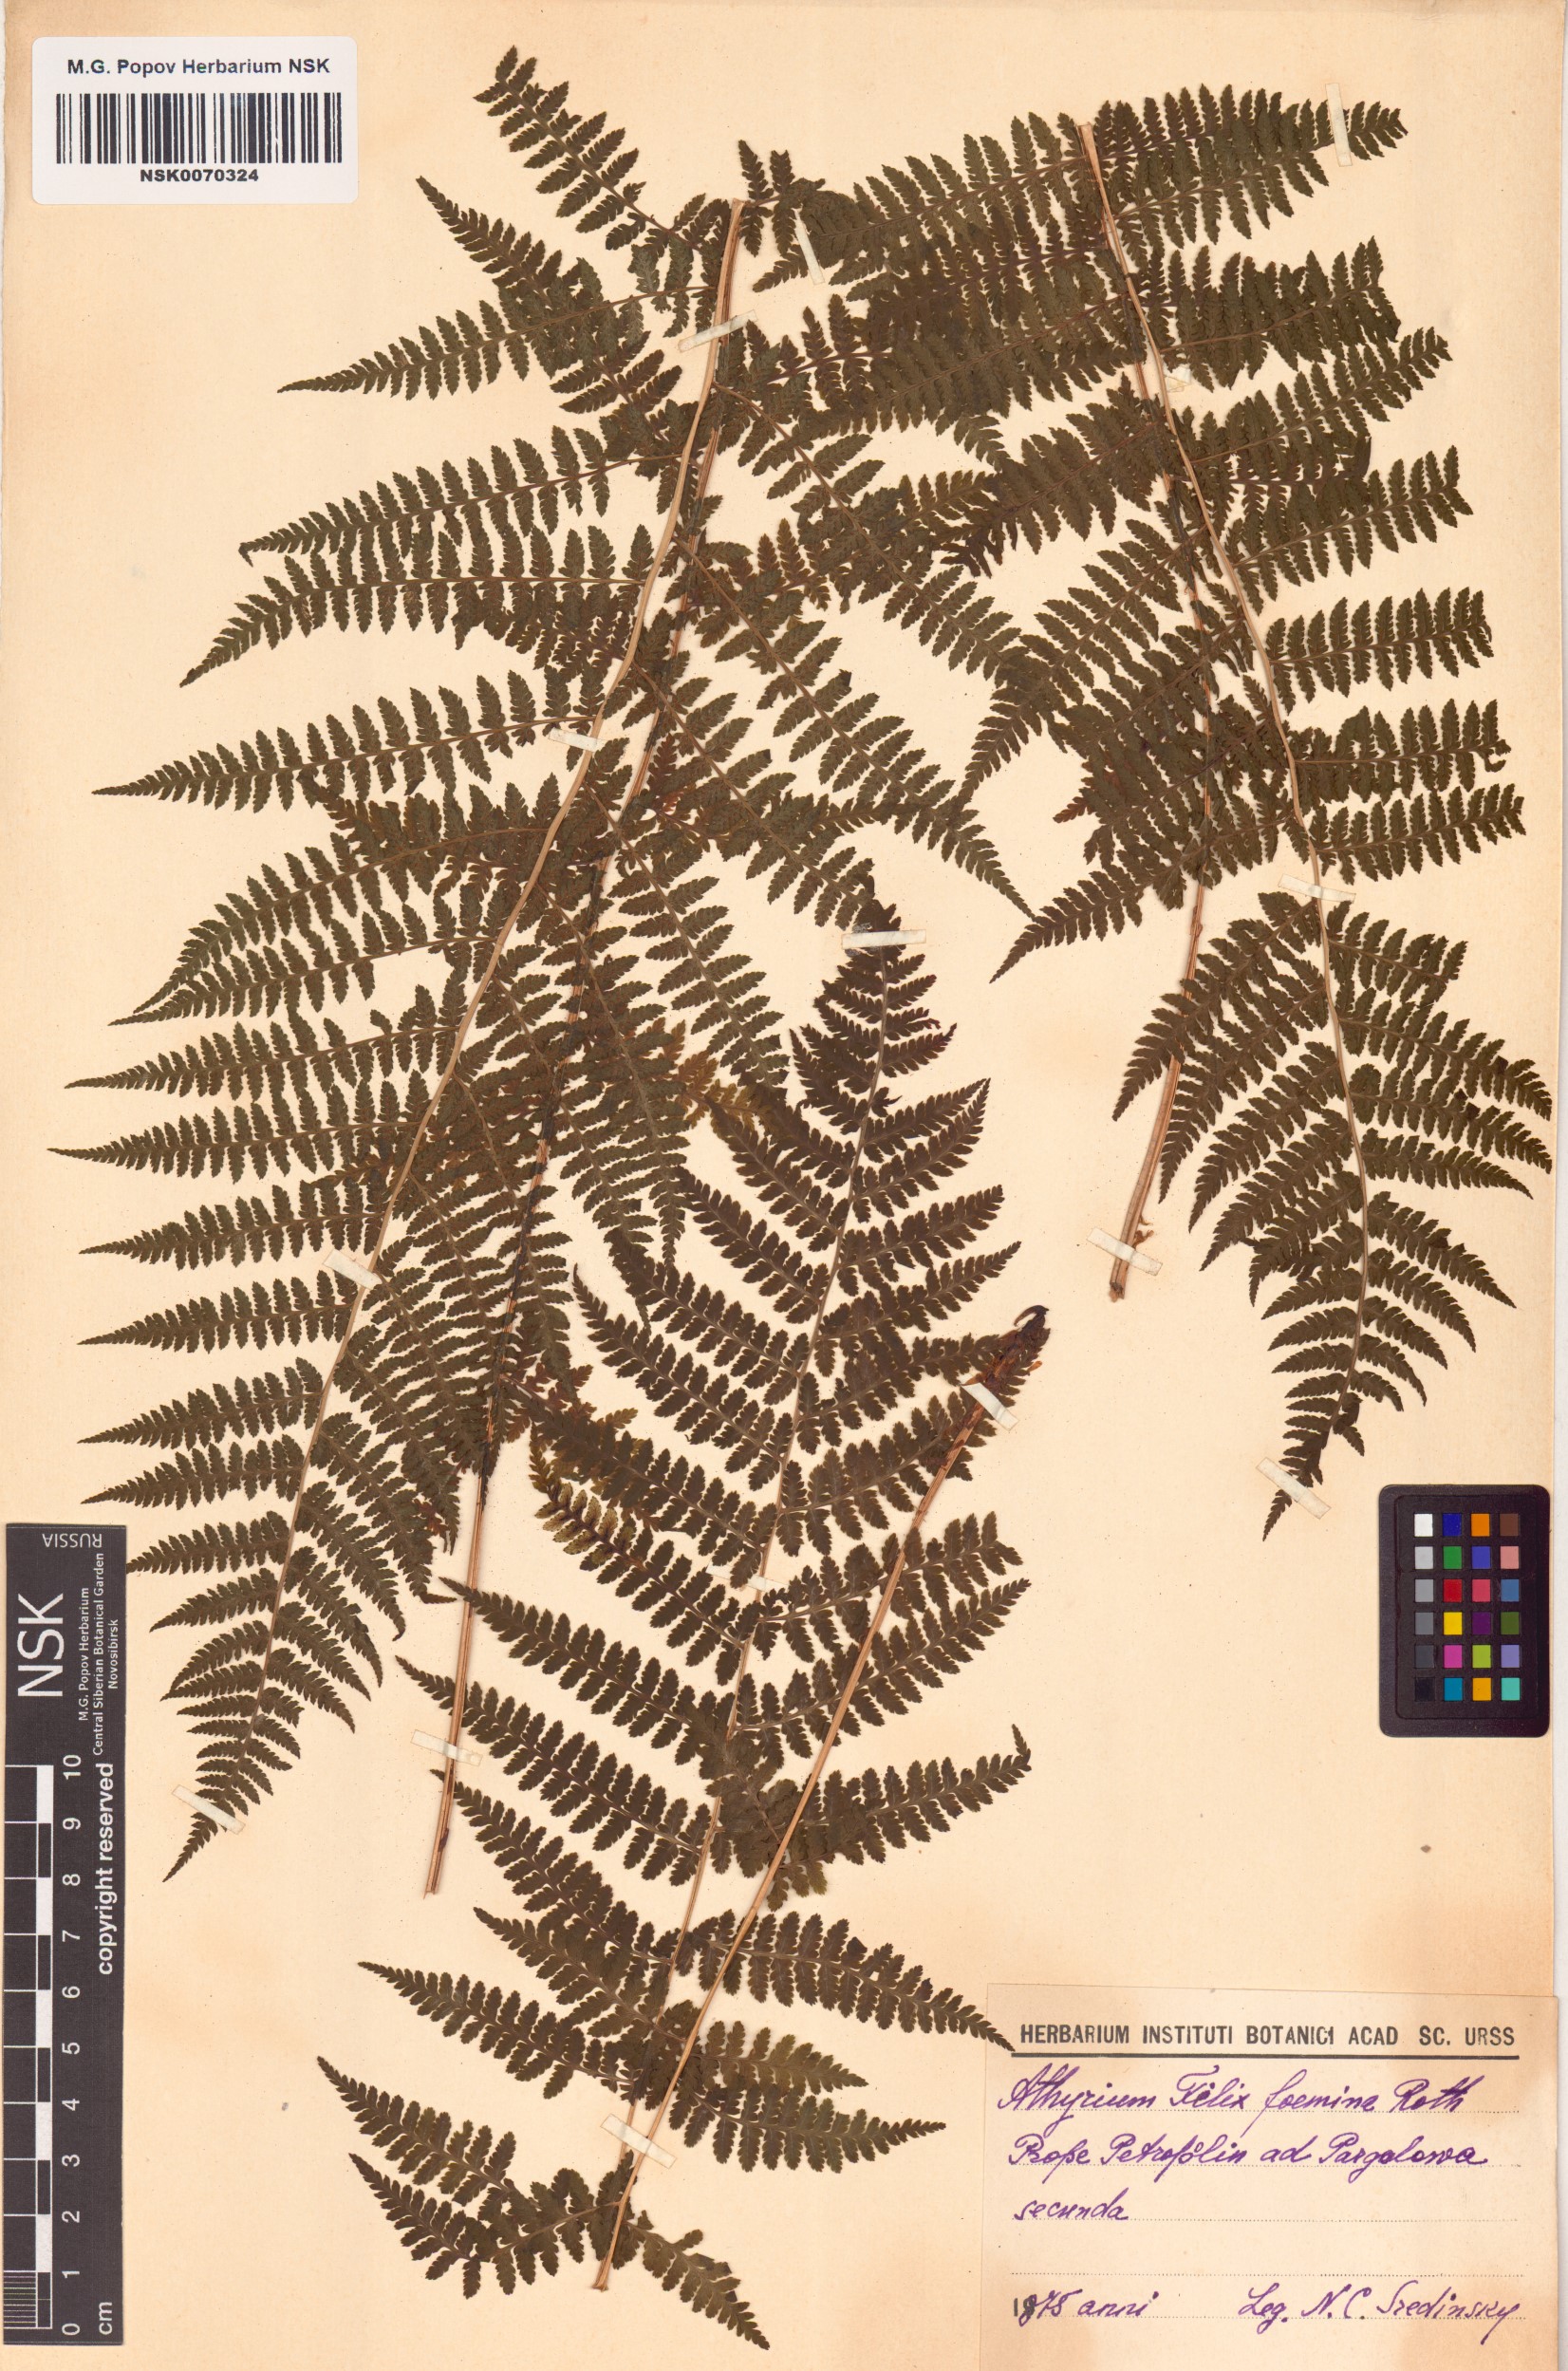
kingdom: Plantae
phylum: Tracheophyta
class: Polypodiopsida
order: Polypodiales
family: Athyriaceae
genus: Athyrium
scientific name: Athyrium filix-femina
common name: Lady fern
